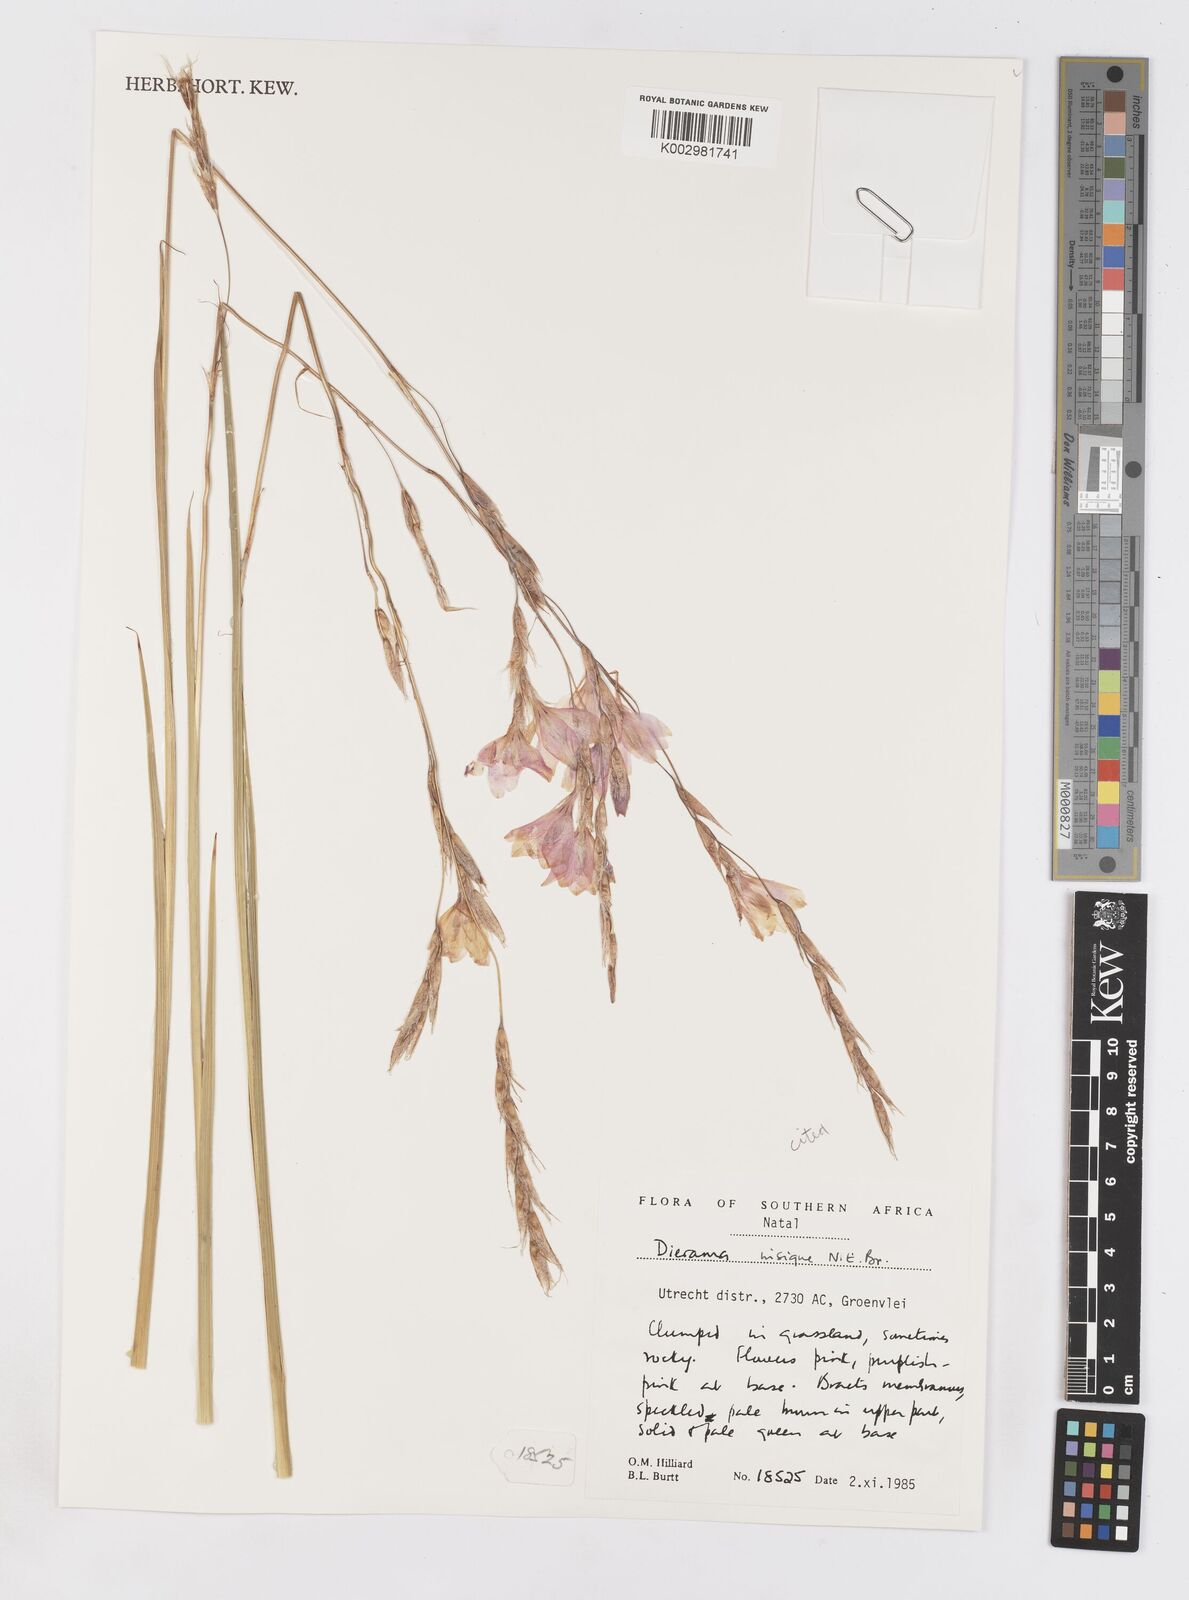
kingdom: Plantae
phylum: Tracheophyta
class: Liliopsida
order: Asparagales
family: Iridaceae
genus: Dierama
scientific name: Dierama insigne
